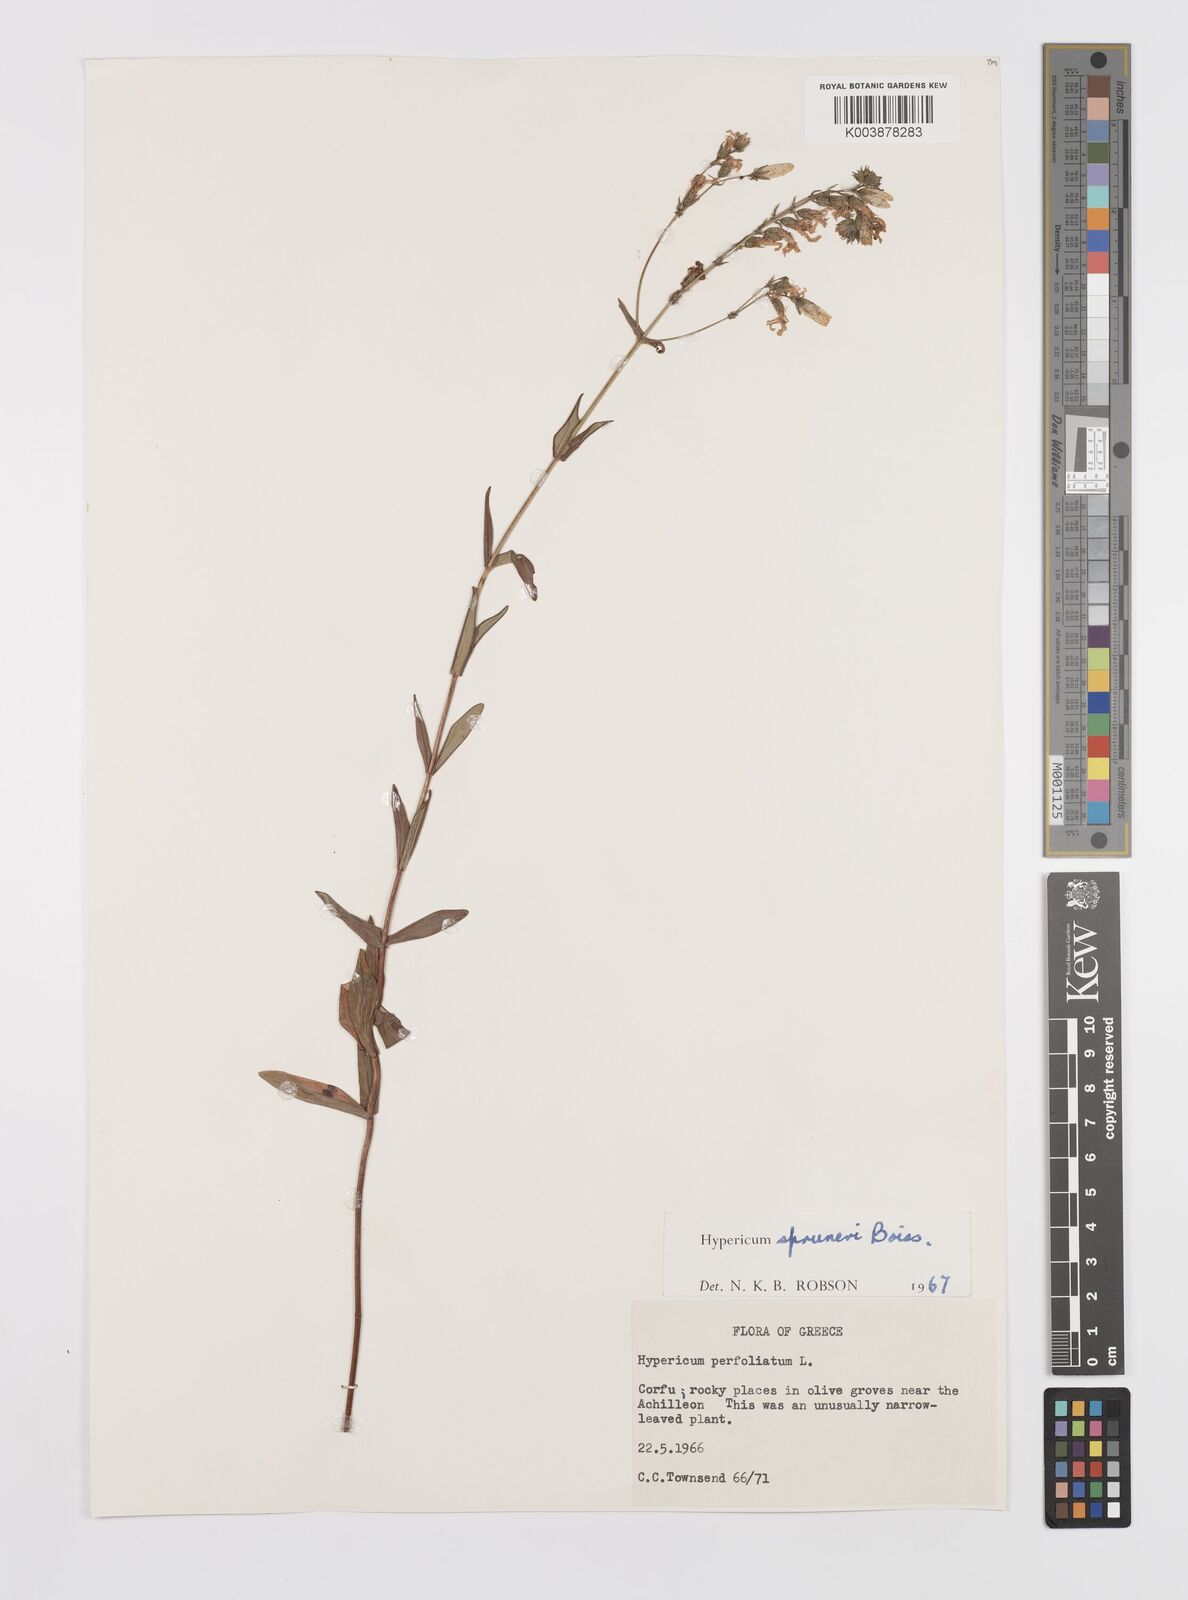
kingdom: Plantae
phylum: Tracheophyta
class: Magnoliopsida
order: Malpighiales
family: Hypericaceae
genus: Hypericum
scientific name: Hypericum spruneri
